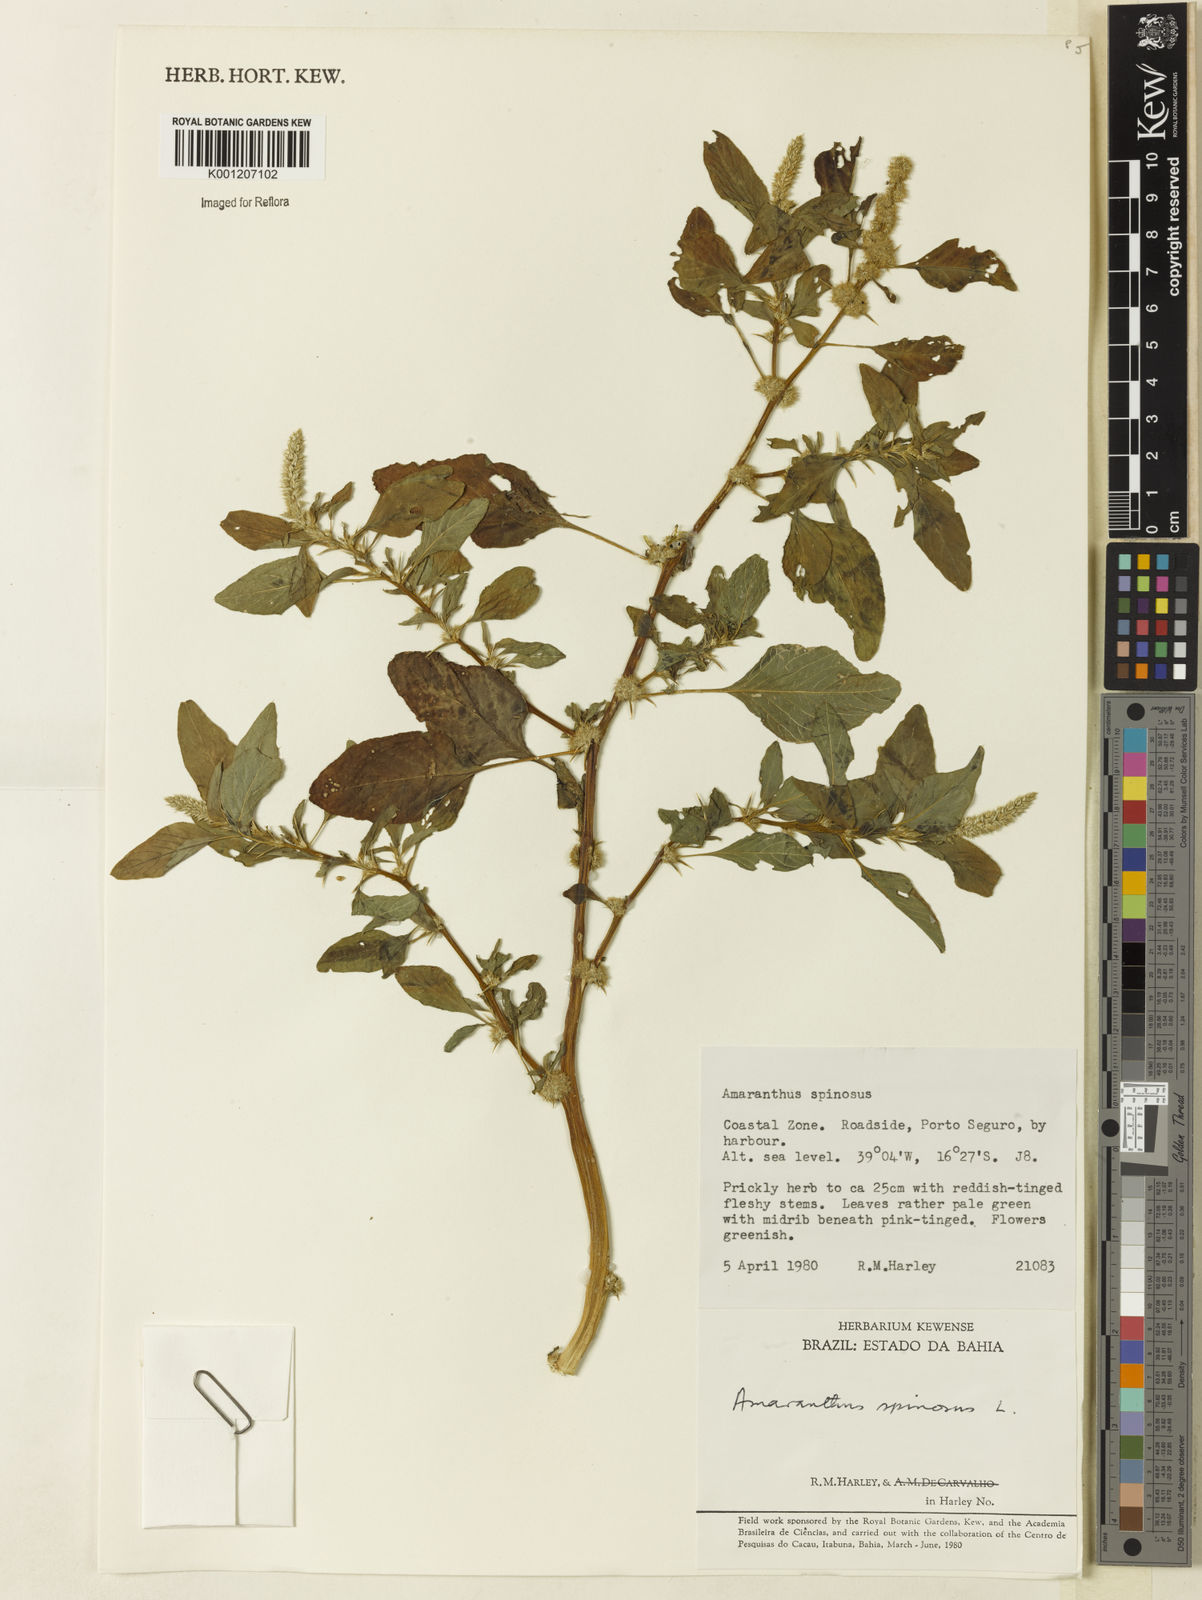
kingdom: Plantae
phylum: Tracheophyta
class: Magnoliopsida
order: Caryophyllales
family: Amaranthaceae
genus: Amaranthus
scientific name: Amaranthus spinosus
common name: Spiny amaranth
